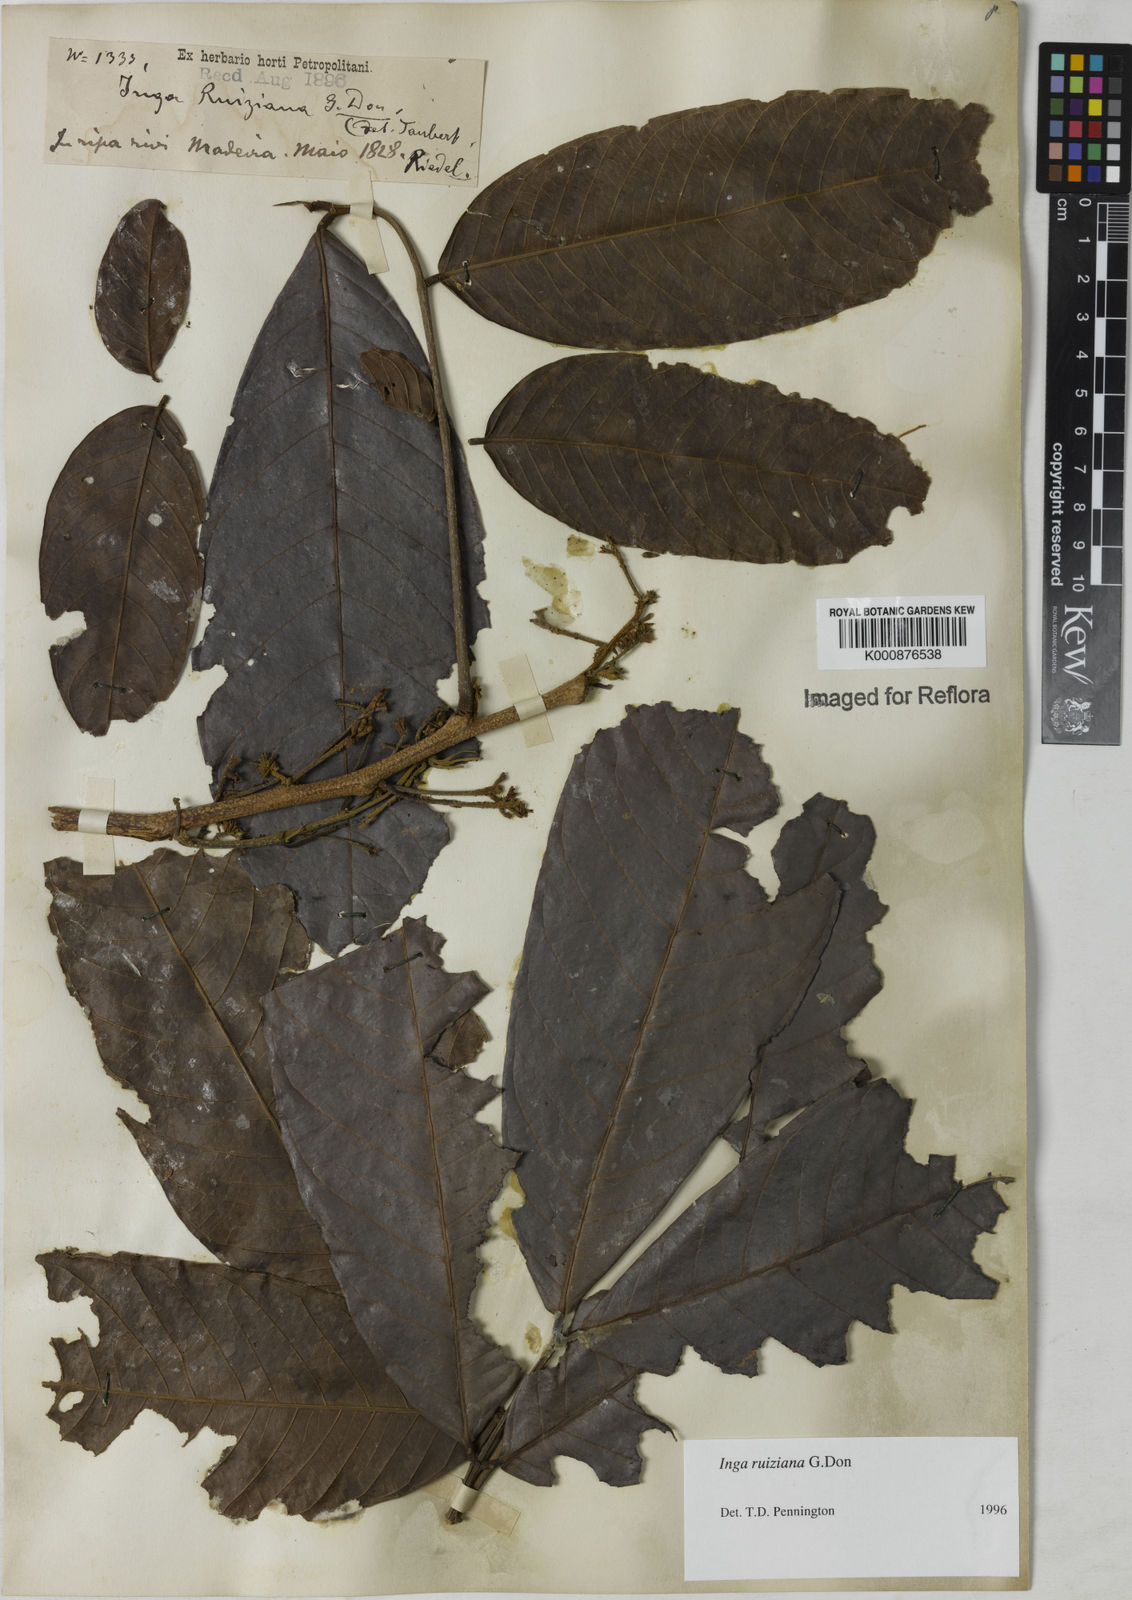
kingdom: Plantae
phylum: Tracheophyta
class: Magnoliopsida
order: Fabales
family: Fabaceae
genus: Inga
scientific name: Inga ruiziana
